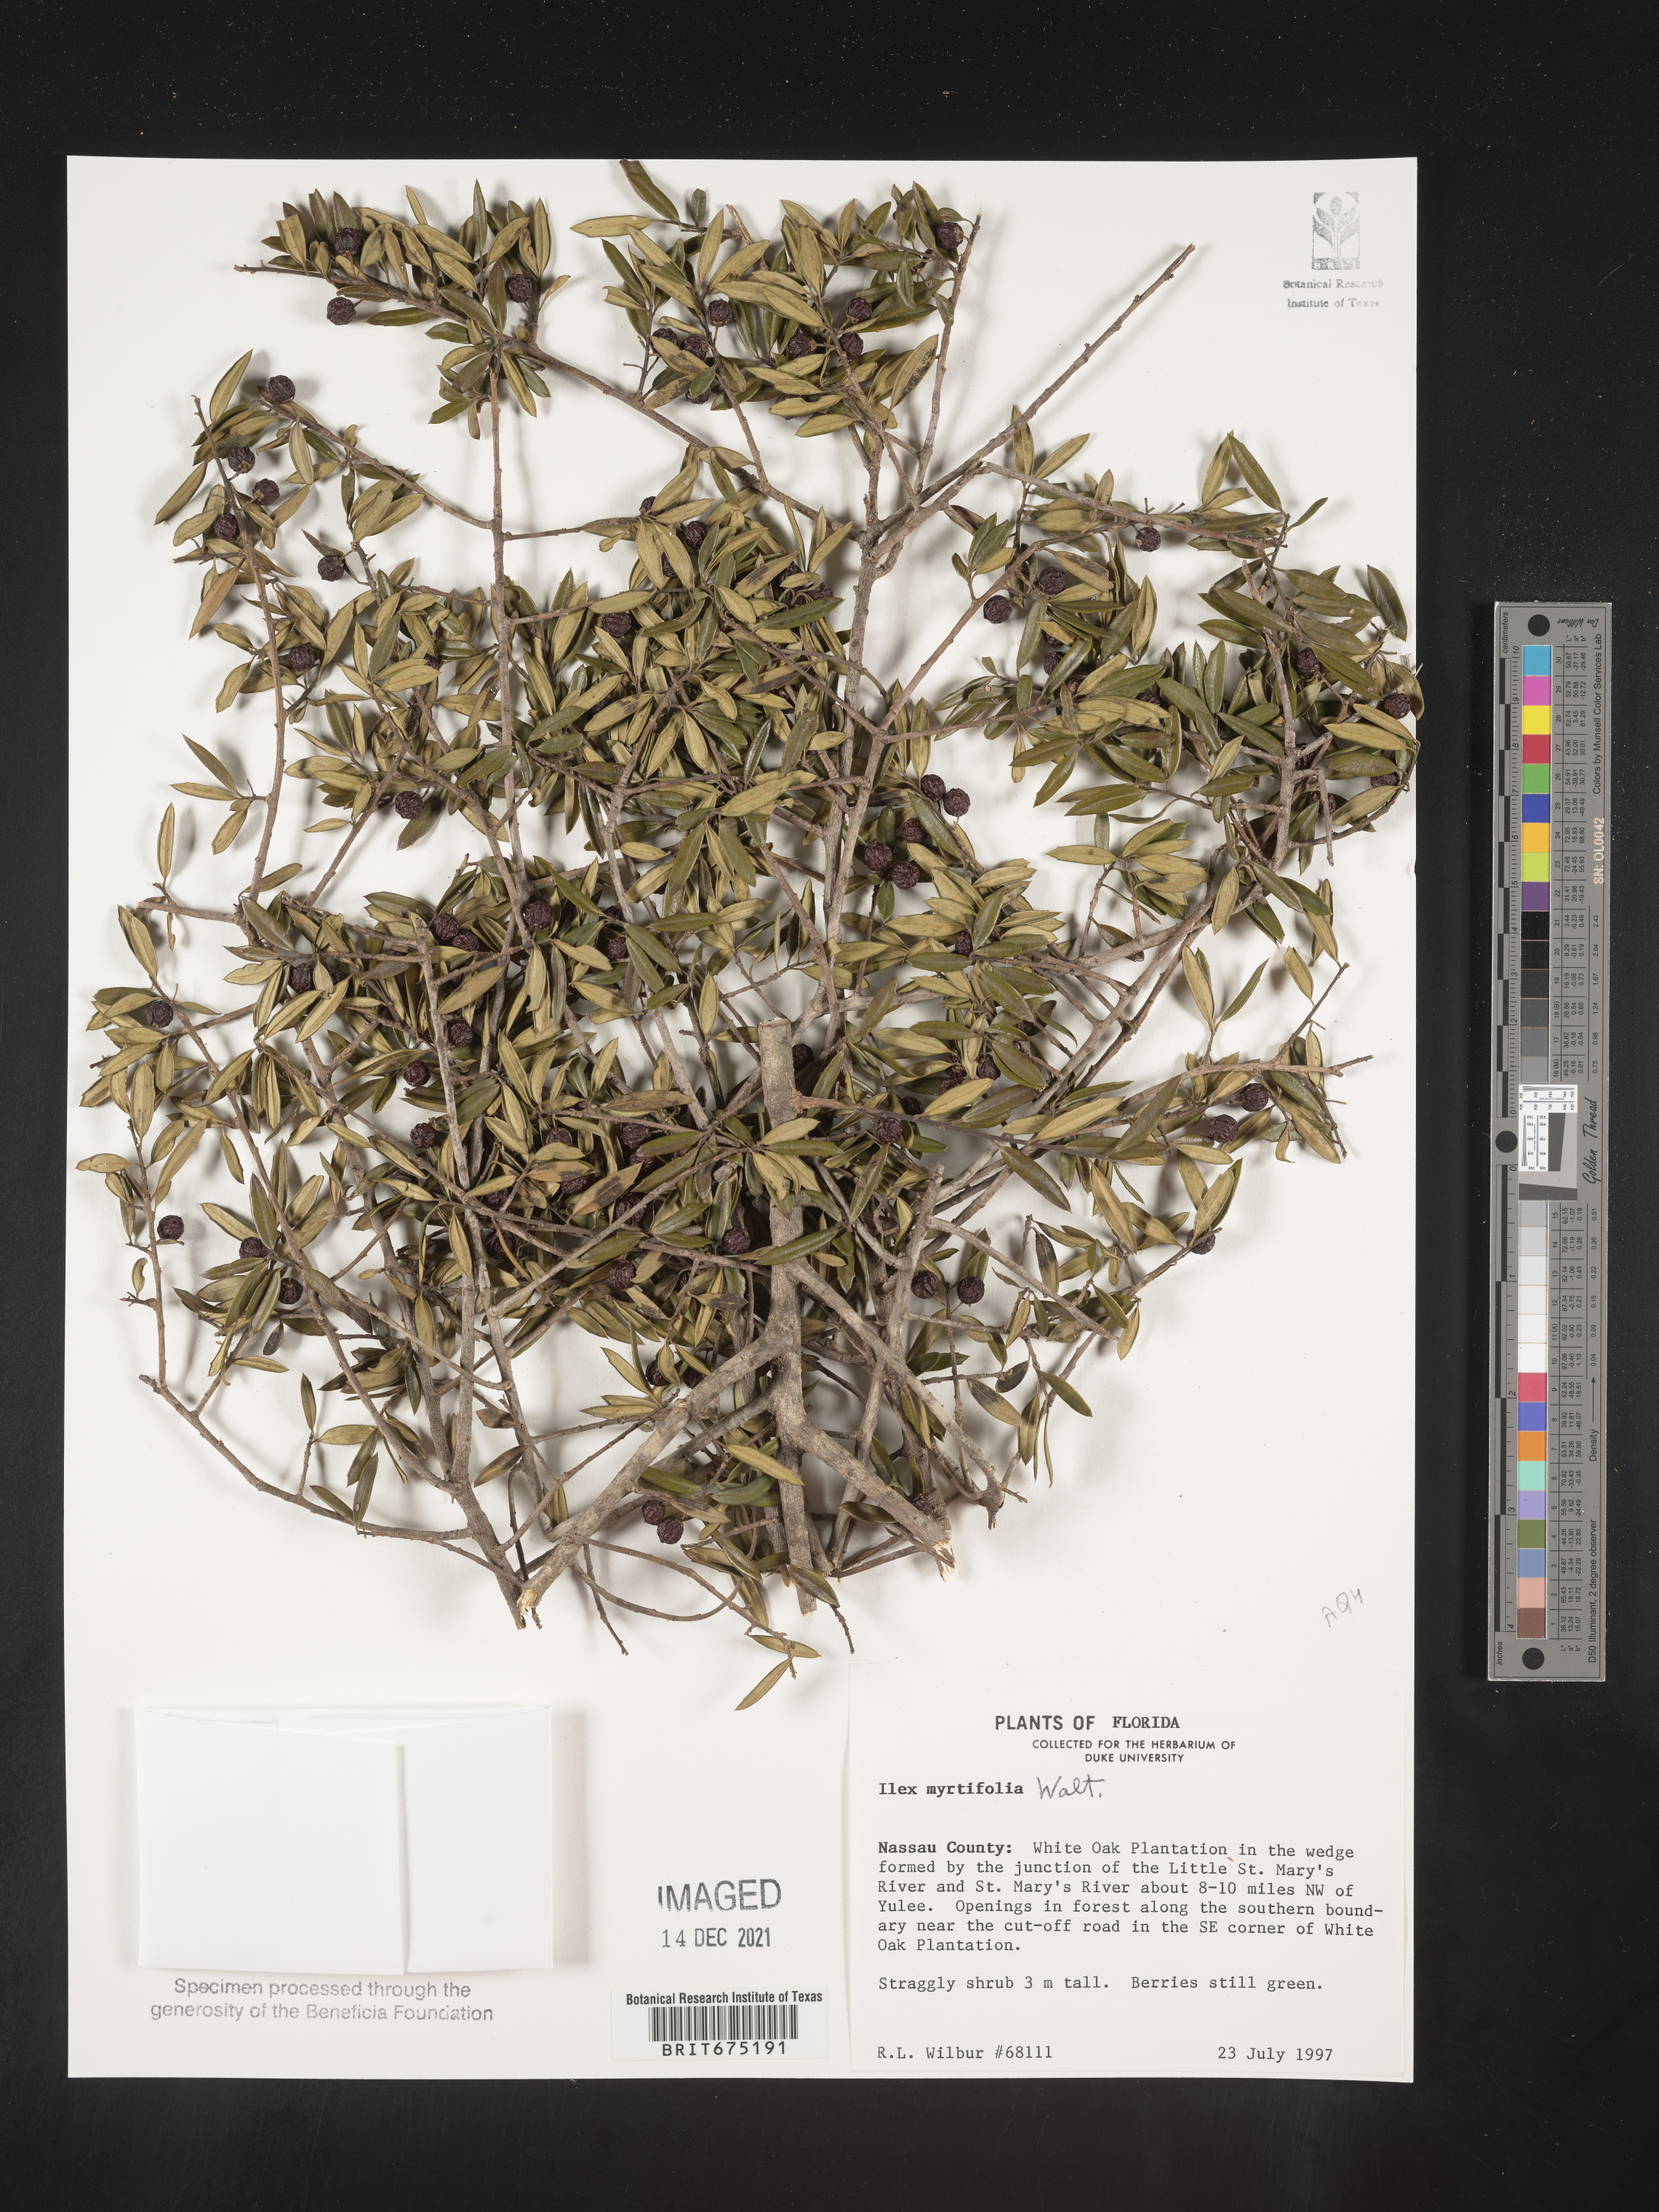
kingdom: Plantae
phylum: Tracheophyta
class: Magnoliopsida
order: Aquifoliales
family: Aquifoliaceae
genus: Ilex
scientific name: Ilex myrtifolia
